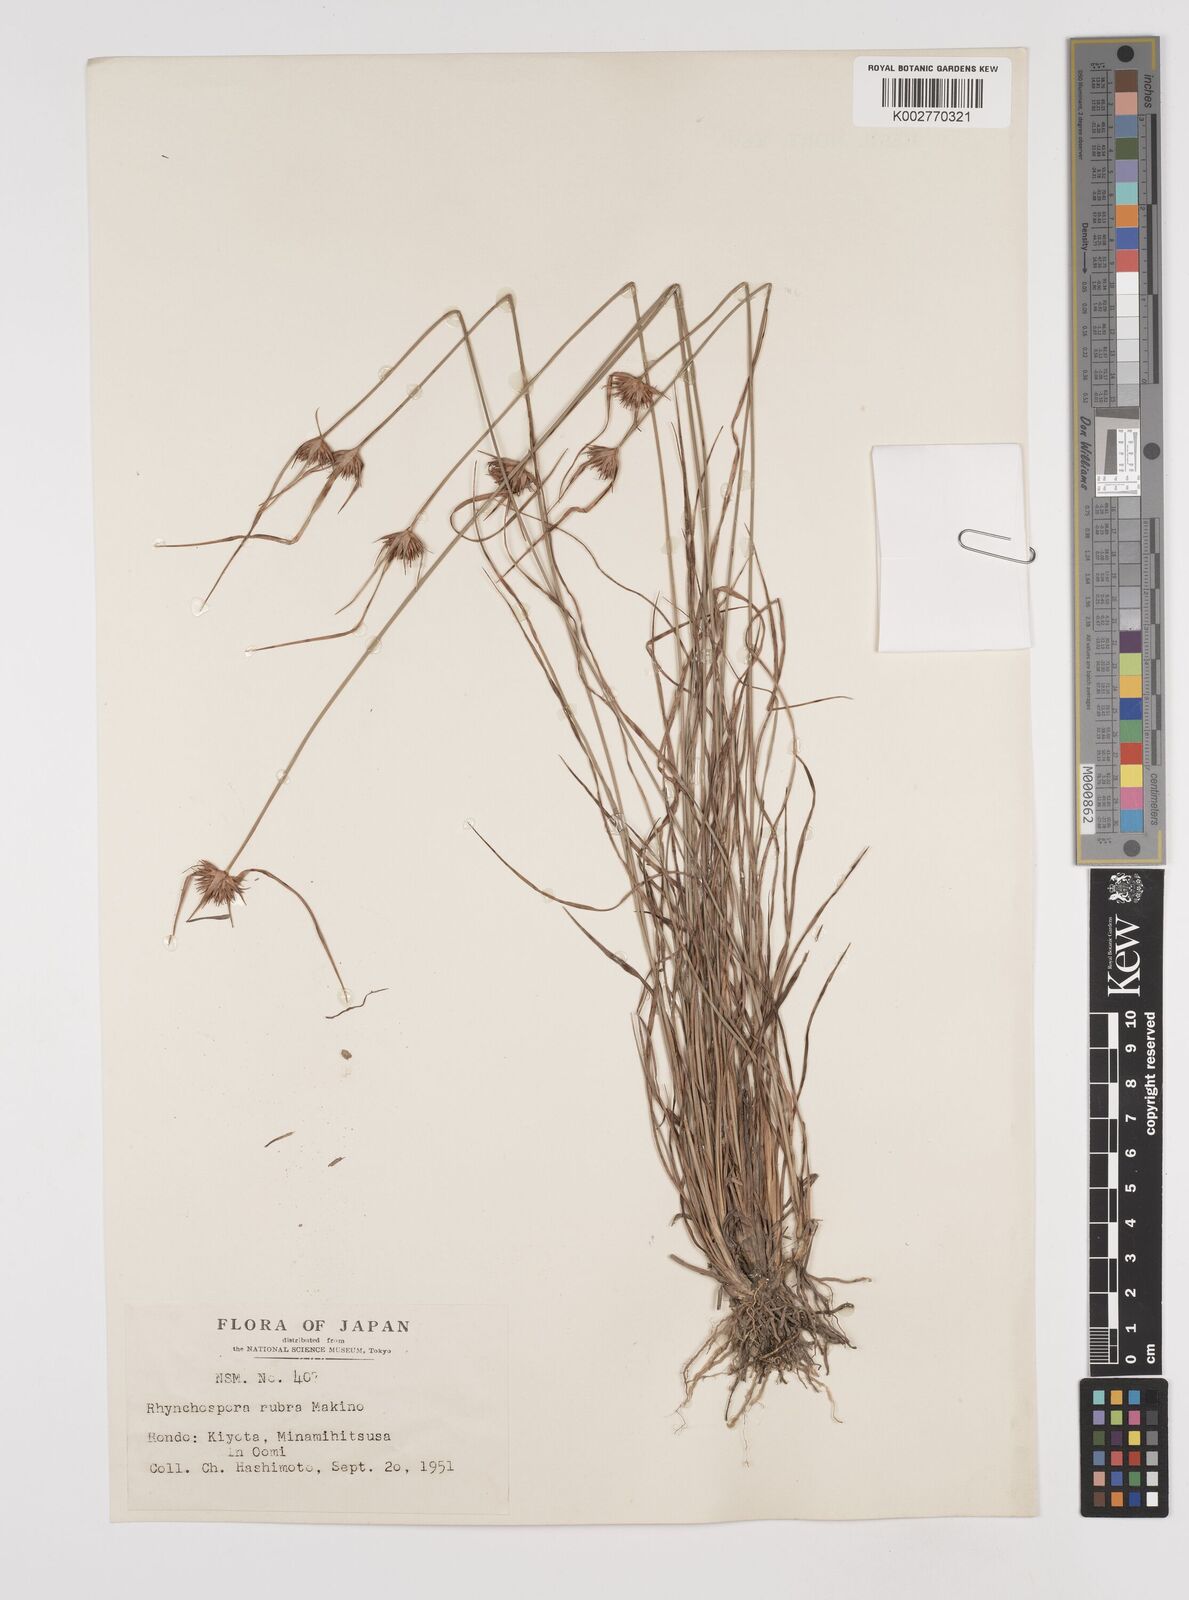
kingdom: Plantae
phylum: Tracheophyta
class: Liliopsida
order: Poales
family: Cyperaceae
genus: Rhynchospora
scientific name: Rhynchospora rubra
